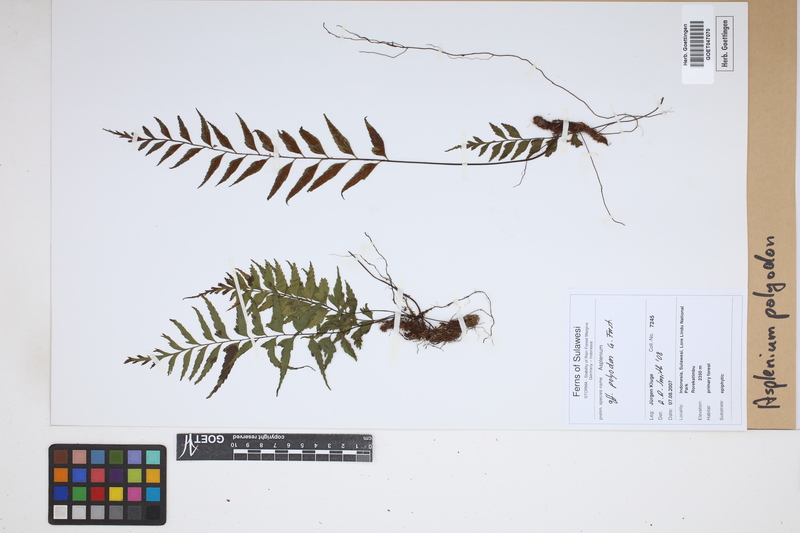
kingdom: Plantae
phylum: Tracheophyta
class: Polypodiopsida
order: Polypodiales
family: Aspleniaceae
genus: Asplenium
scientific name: Asplenium polyodon
